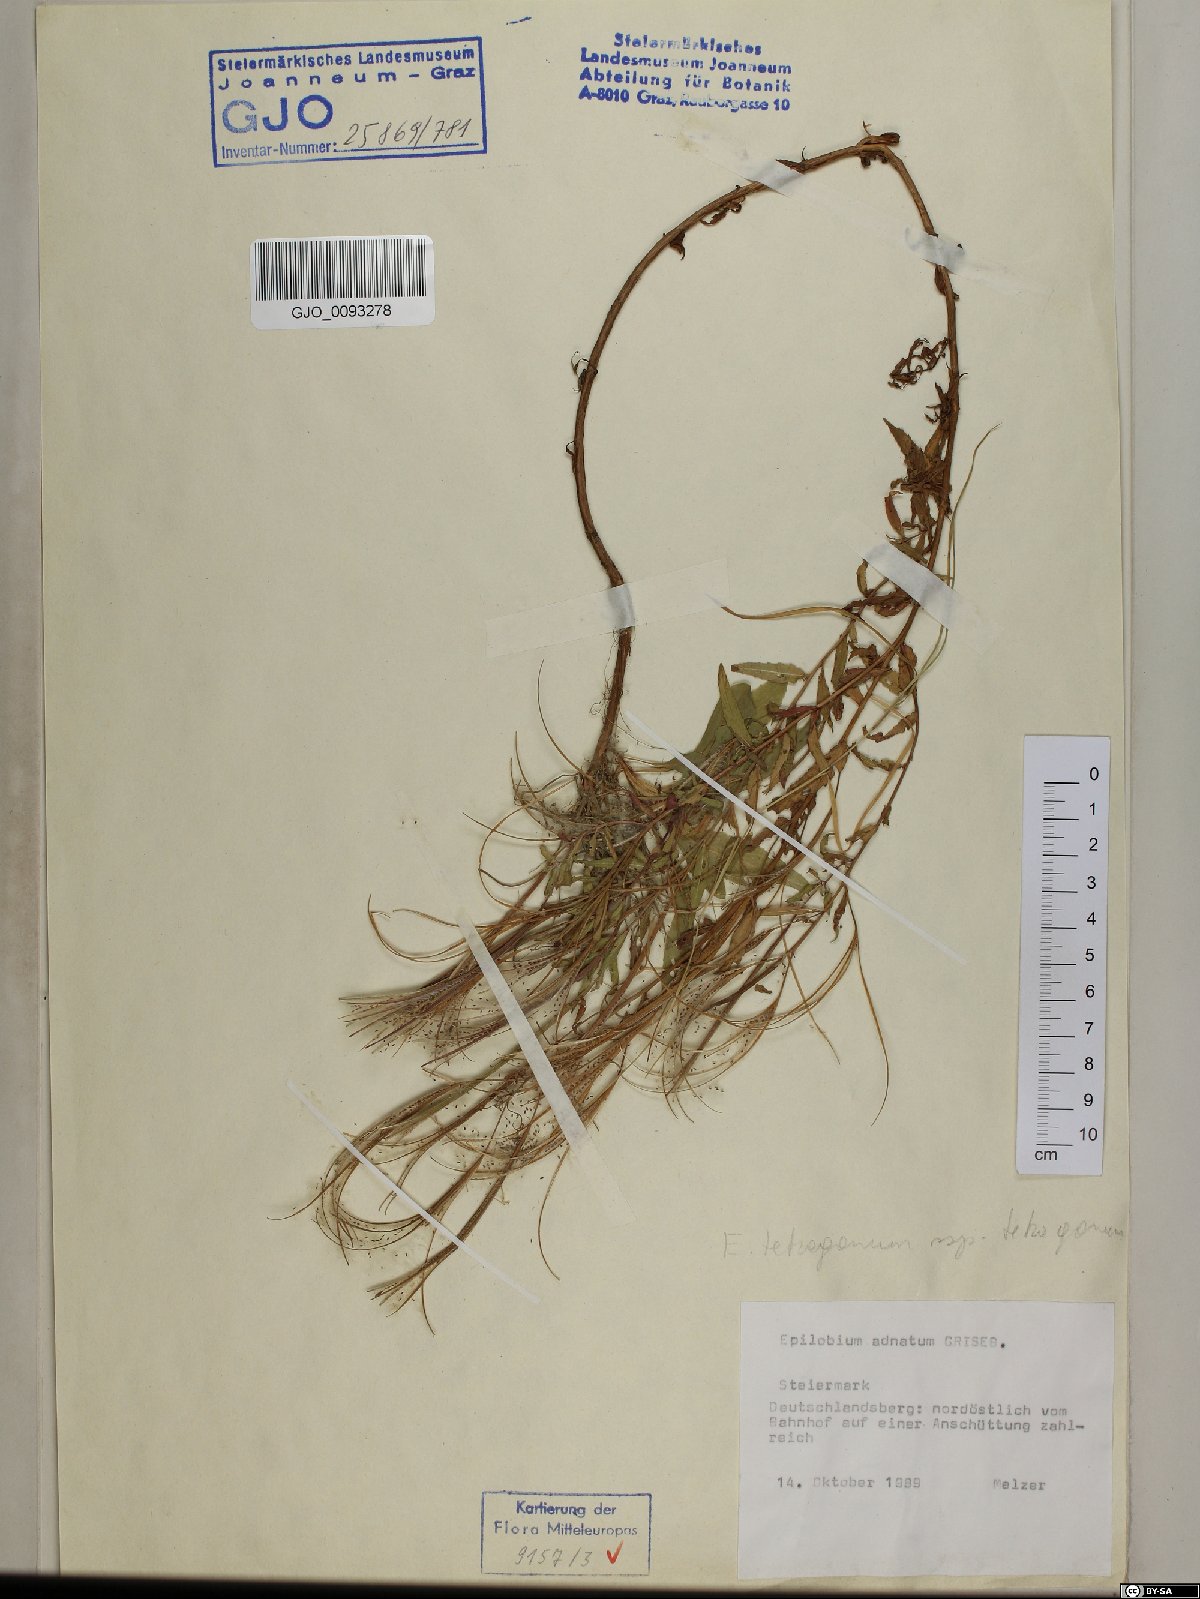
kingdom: Plantae
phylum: Tracheophyta
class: Magnoliopsida
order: Myrtales
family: Onagraceae
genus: Epilobium
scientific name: Epilobium tetragonum
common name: Square-stemmed willowherb
